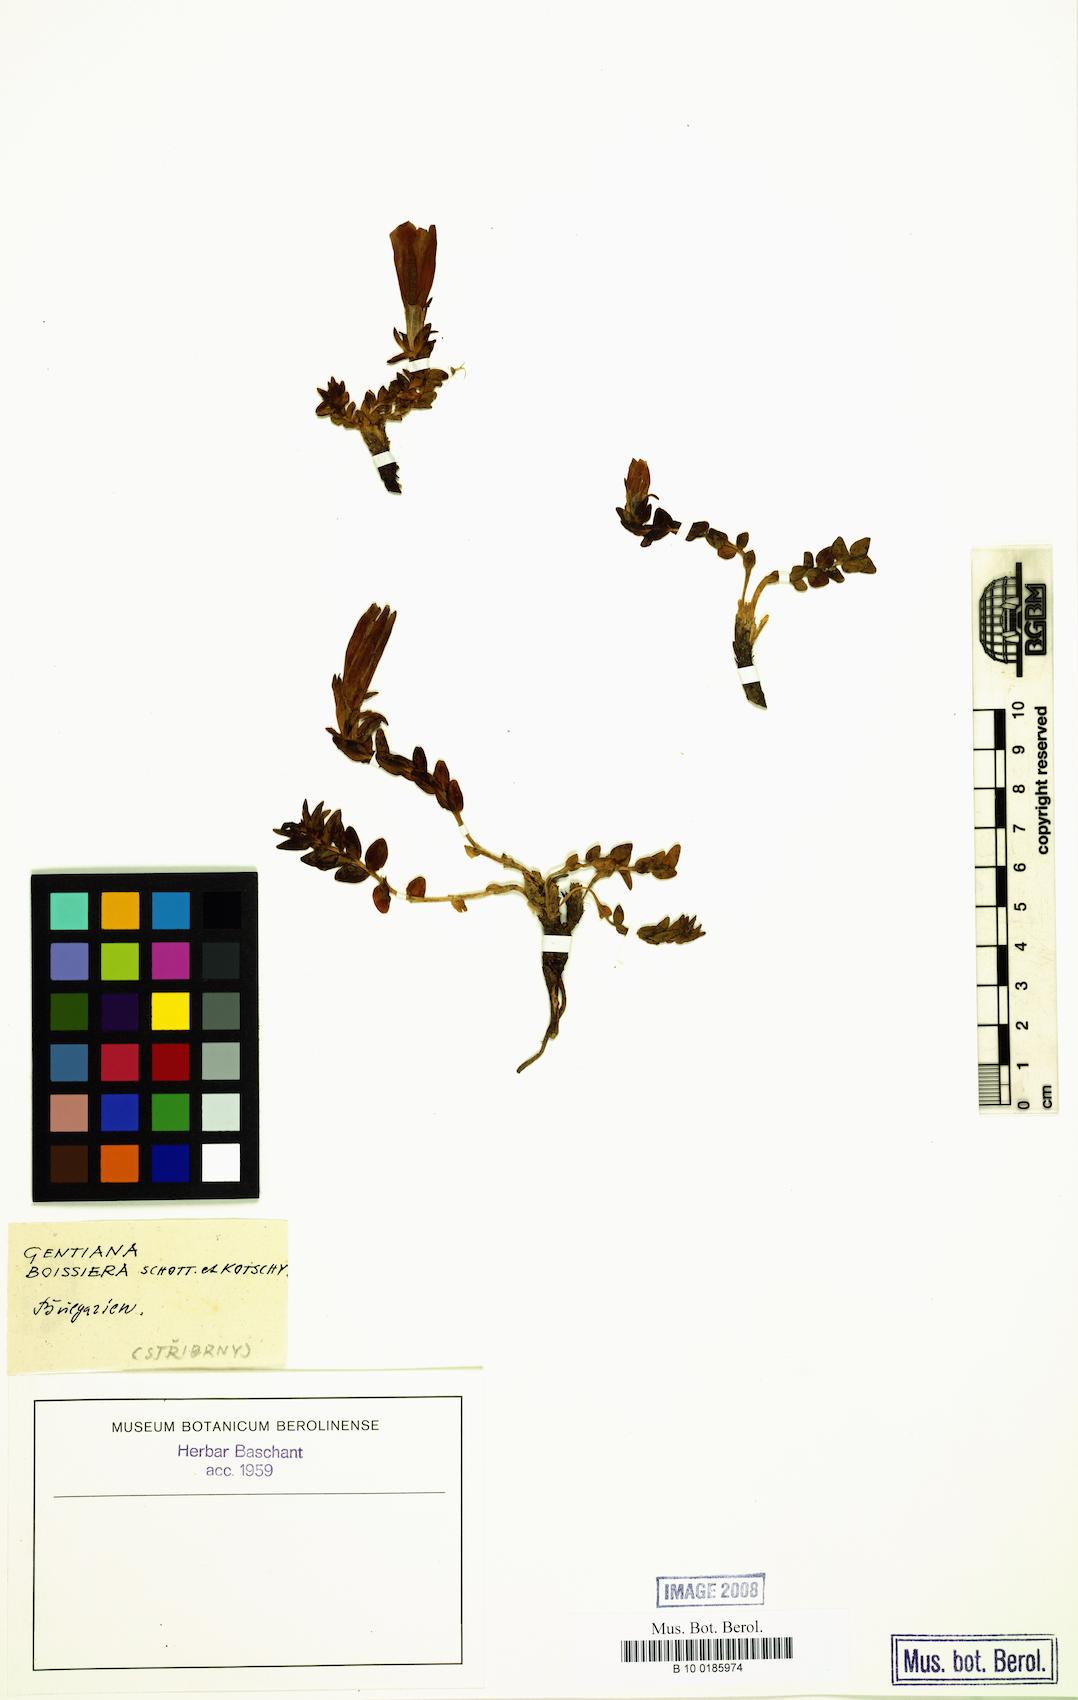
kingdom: Plantae
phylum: Tracheophyta
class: Magnoliopsida
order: Gentianales
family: Gentianaceae
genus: Gentiana
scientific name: Gentiana boissieri
